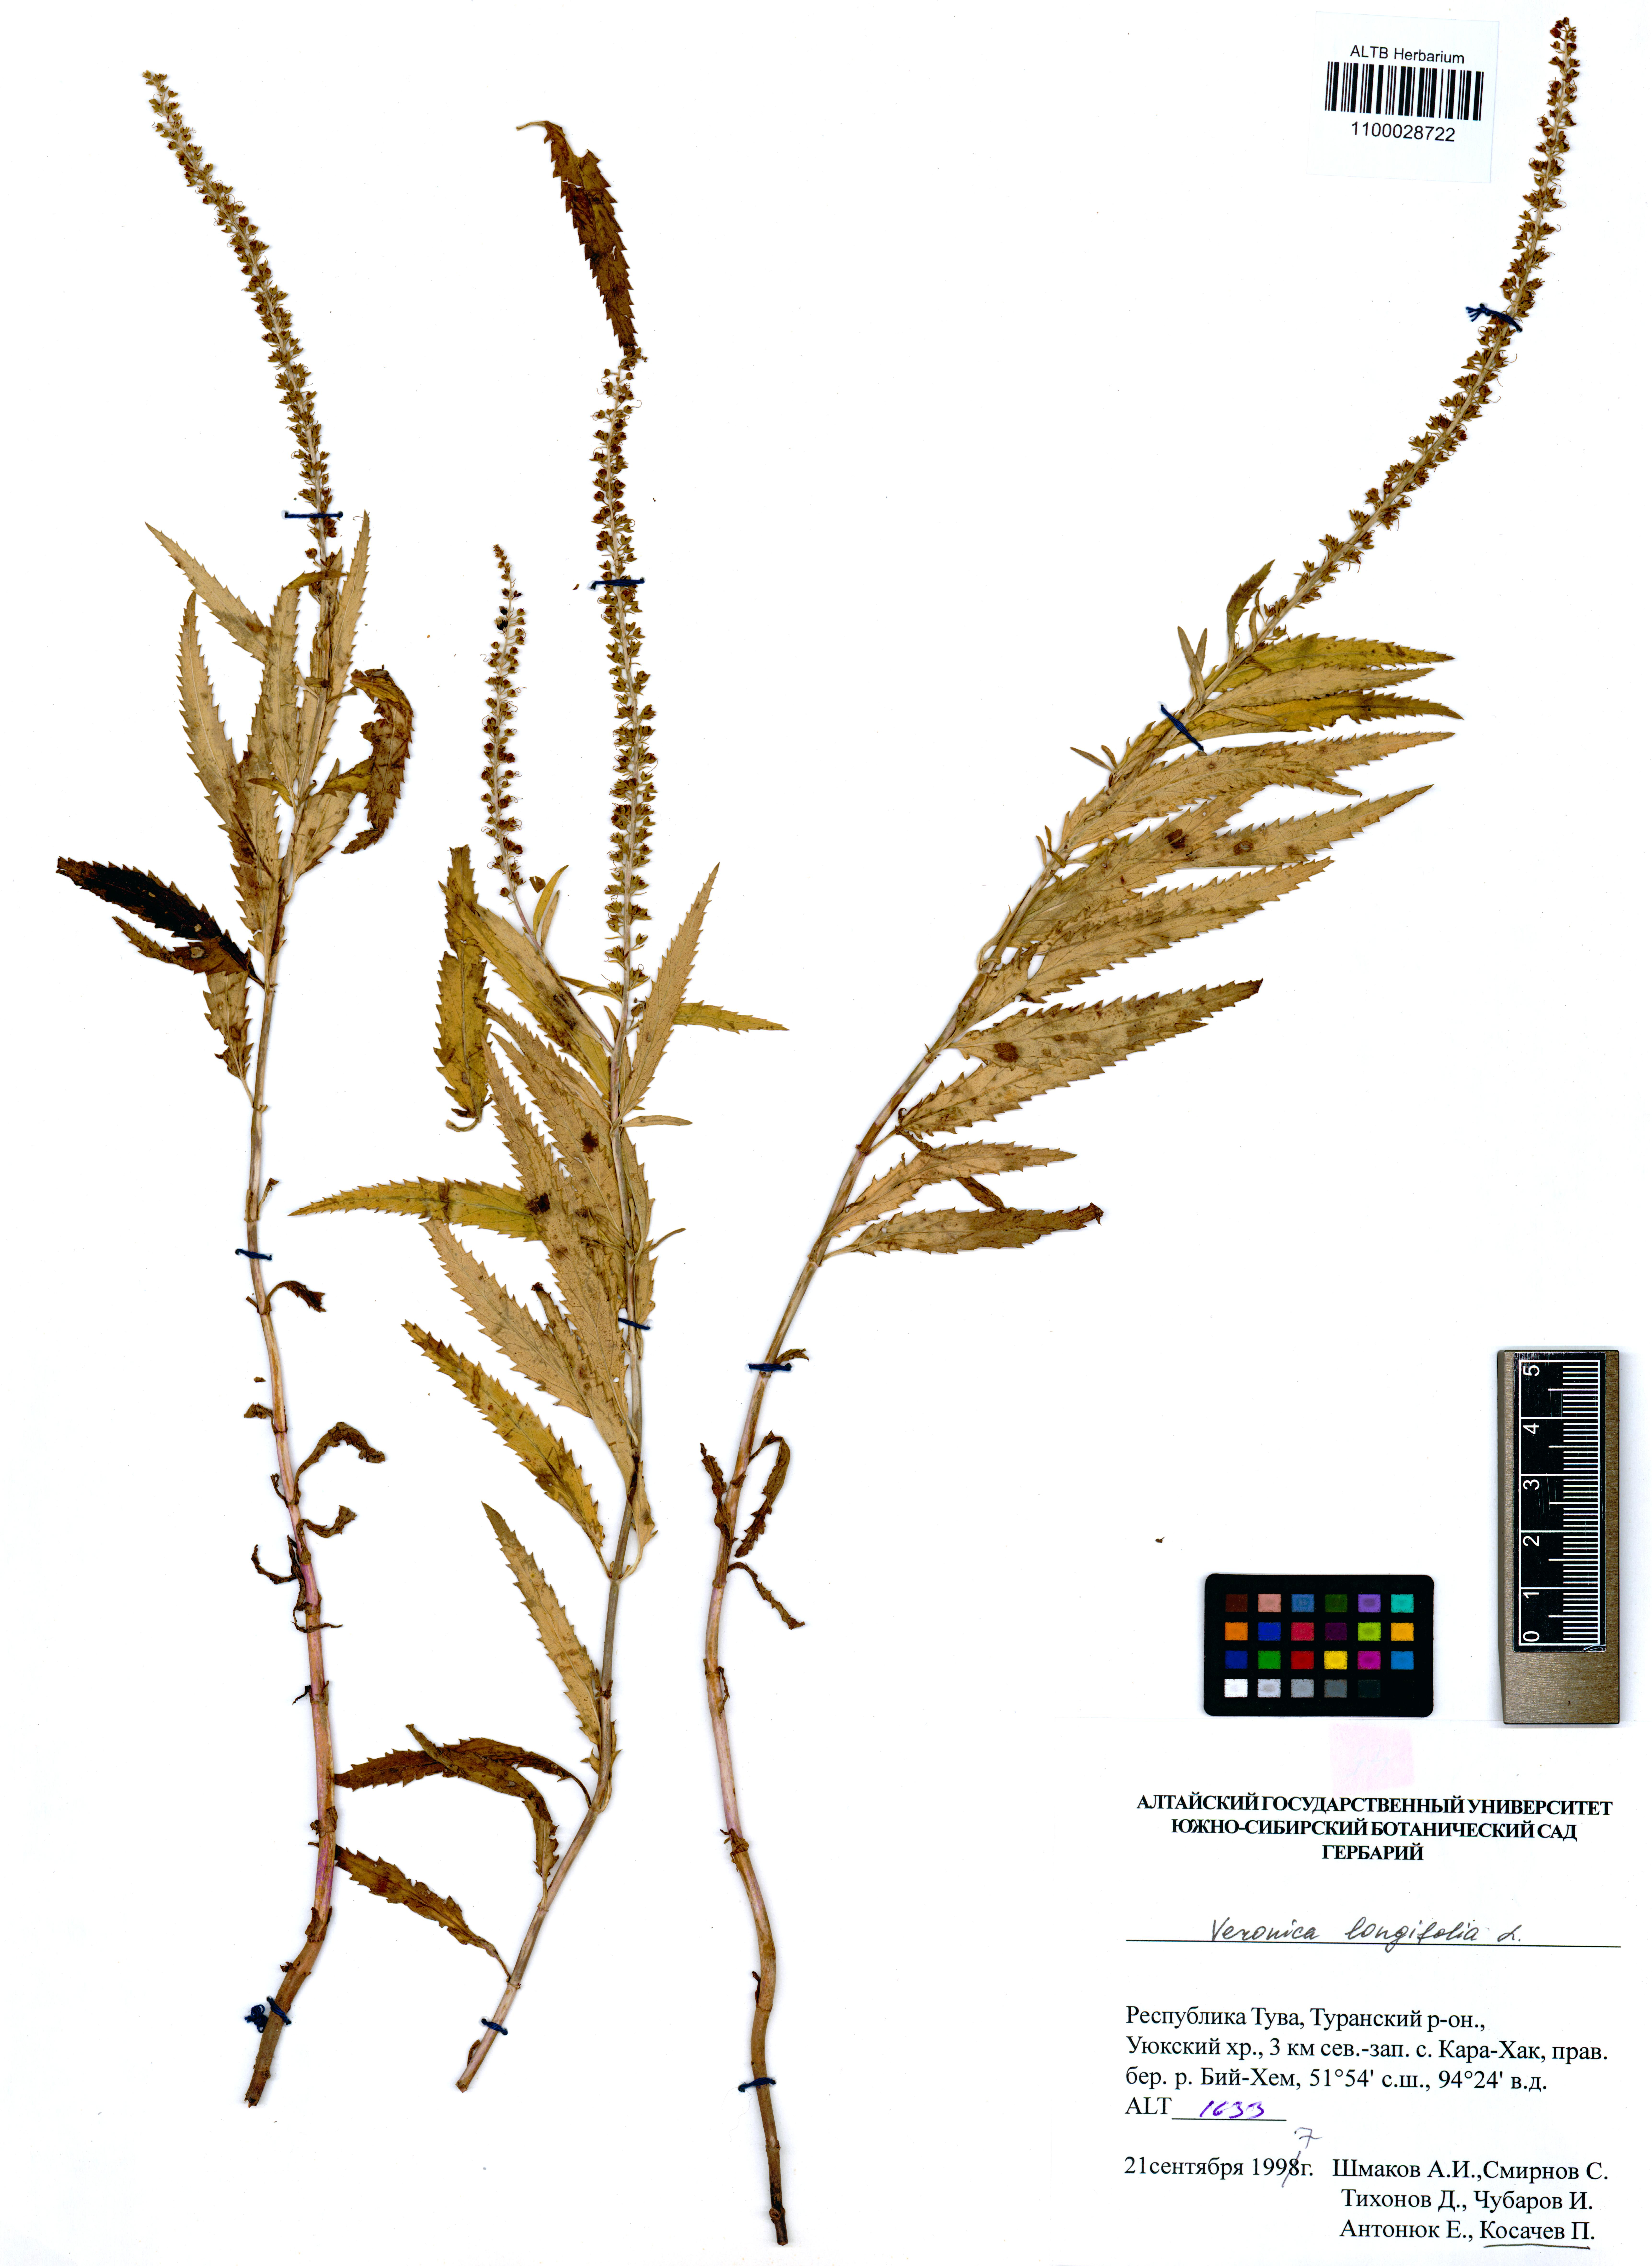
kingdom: Plantae
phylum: Tracheophyta
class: Magnoliopsida
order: Lamiales
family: Plantaginaceae
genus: Veronica
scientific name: Veronica longifolia
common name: Garden speedwell
